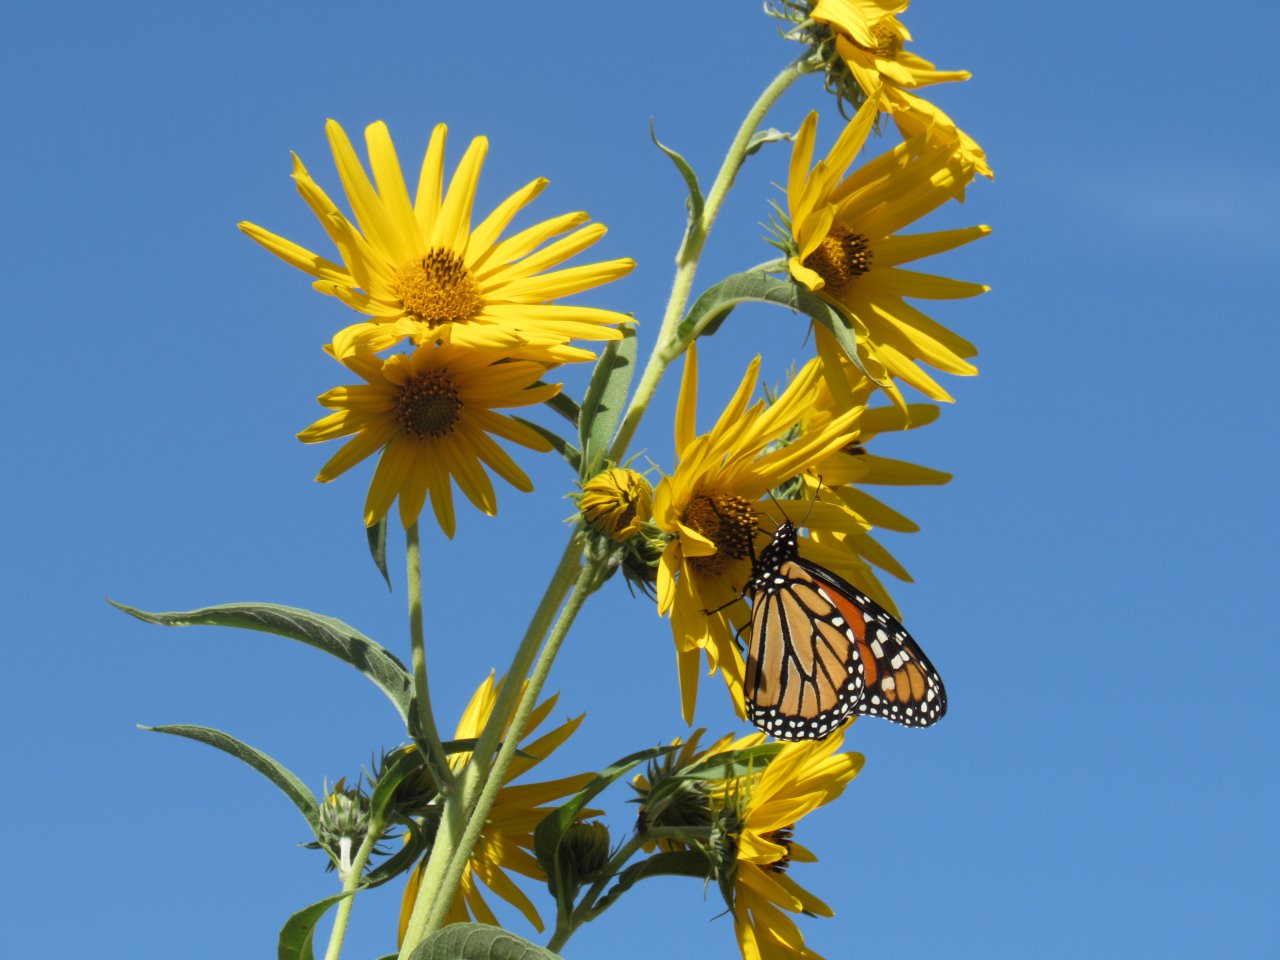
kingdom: Animalia
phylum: Arthropoda
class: Insecta
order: Lepidoptera
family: Nymphalidae
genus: Danaus
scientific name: Danaus plexippus
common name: Monarch
